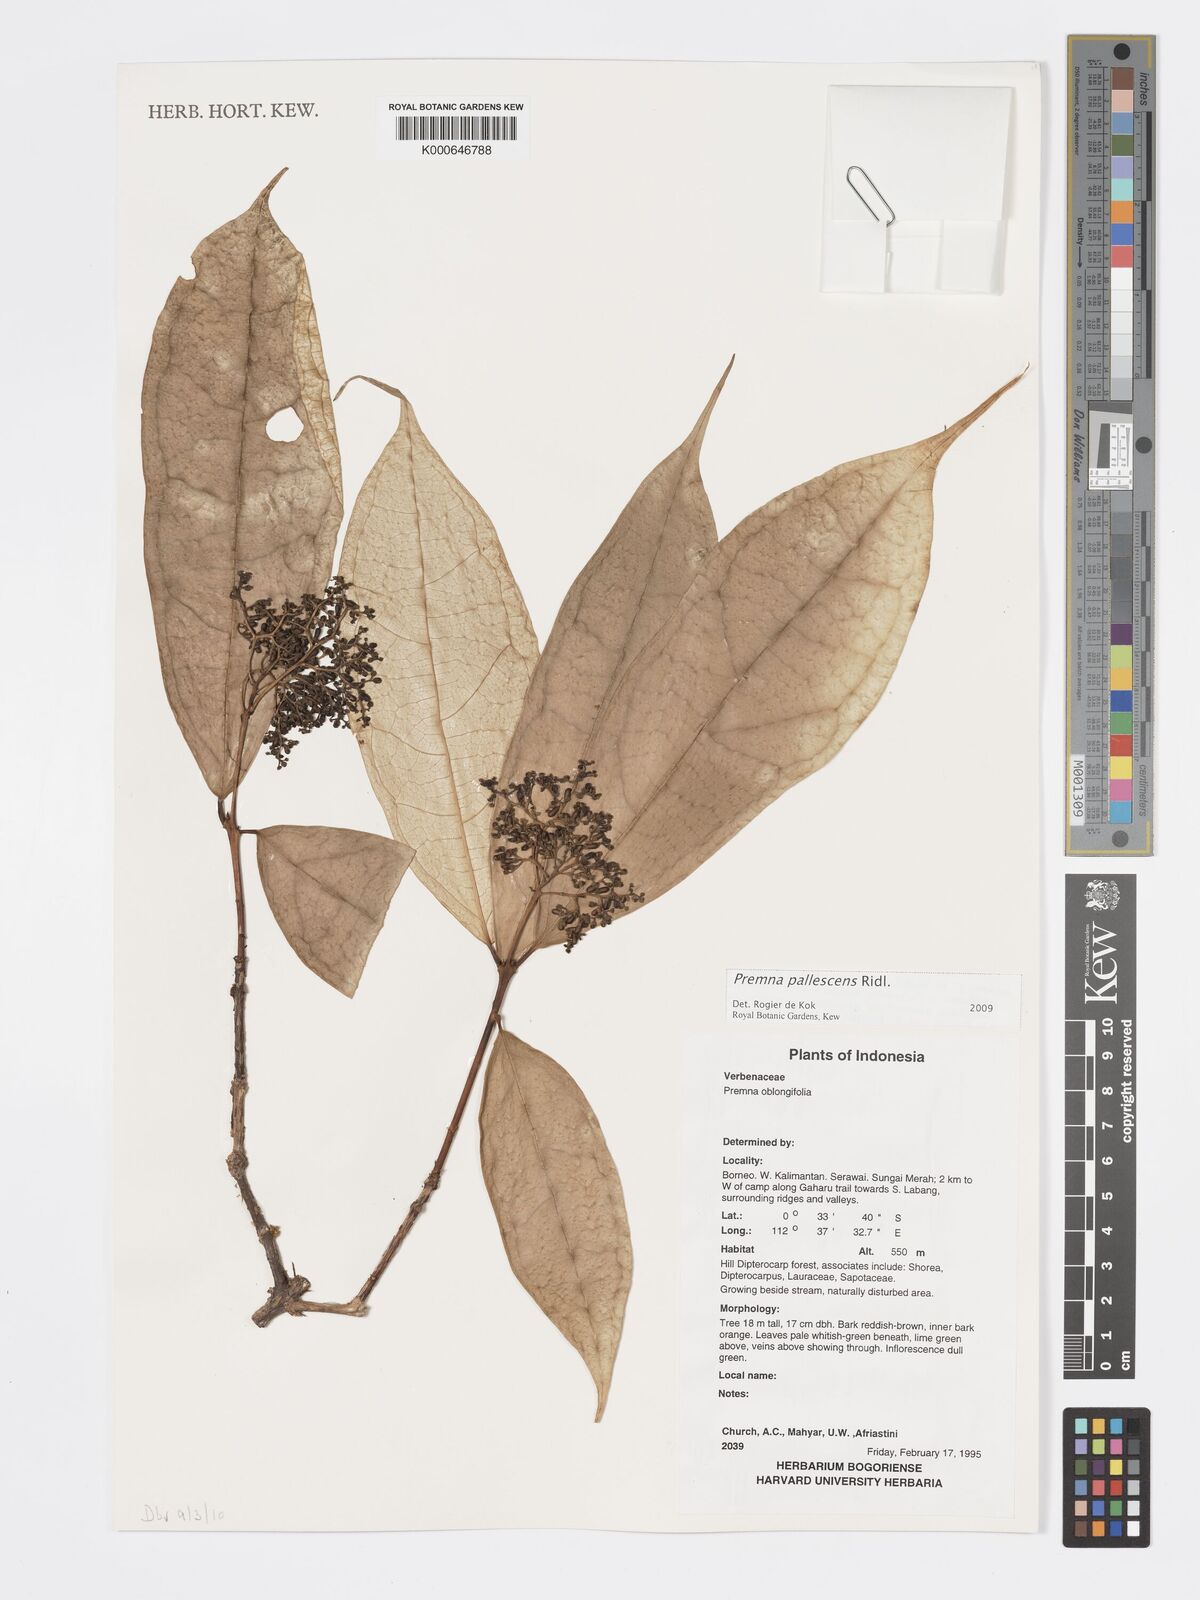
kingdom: Plantae
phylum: Tracheophyta
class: Magnoliopsida
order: Lamiales
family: Lamiaceae
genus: Premna
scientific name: Premna pallescens
